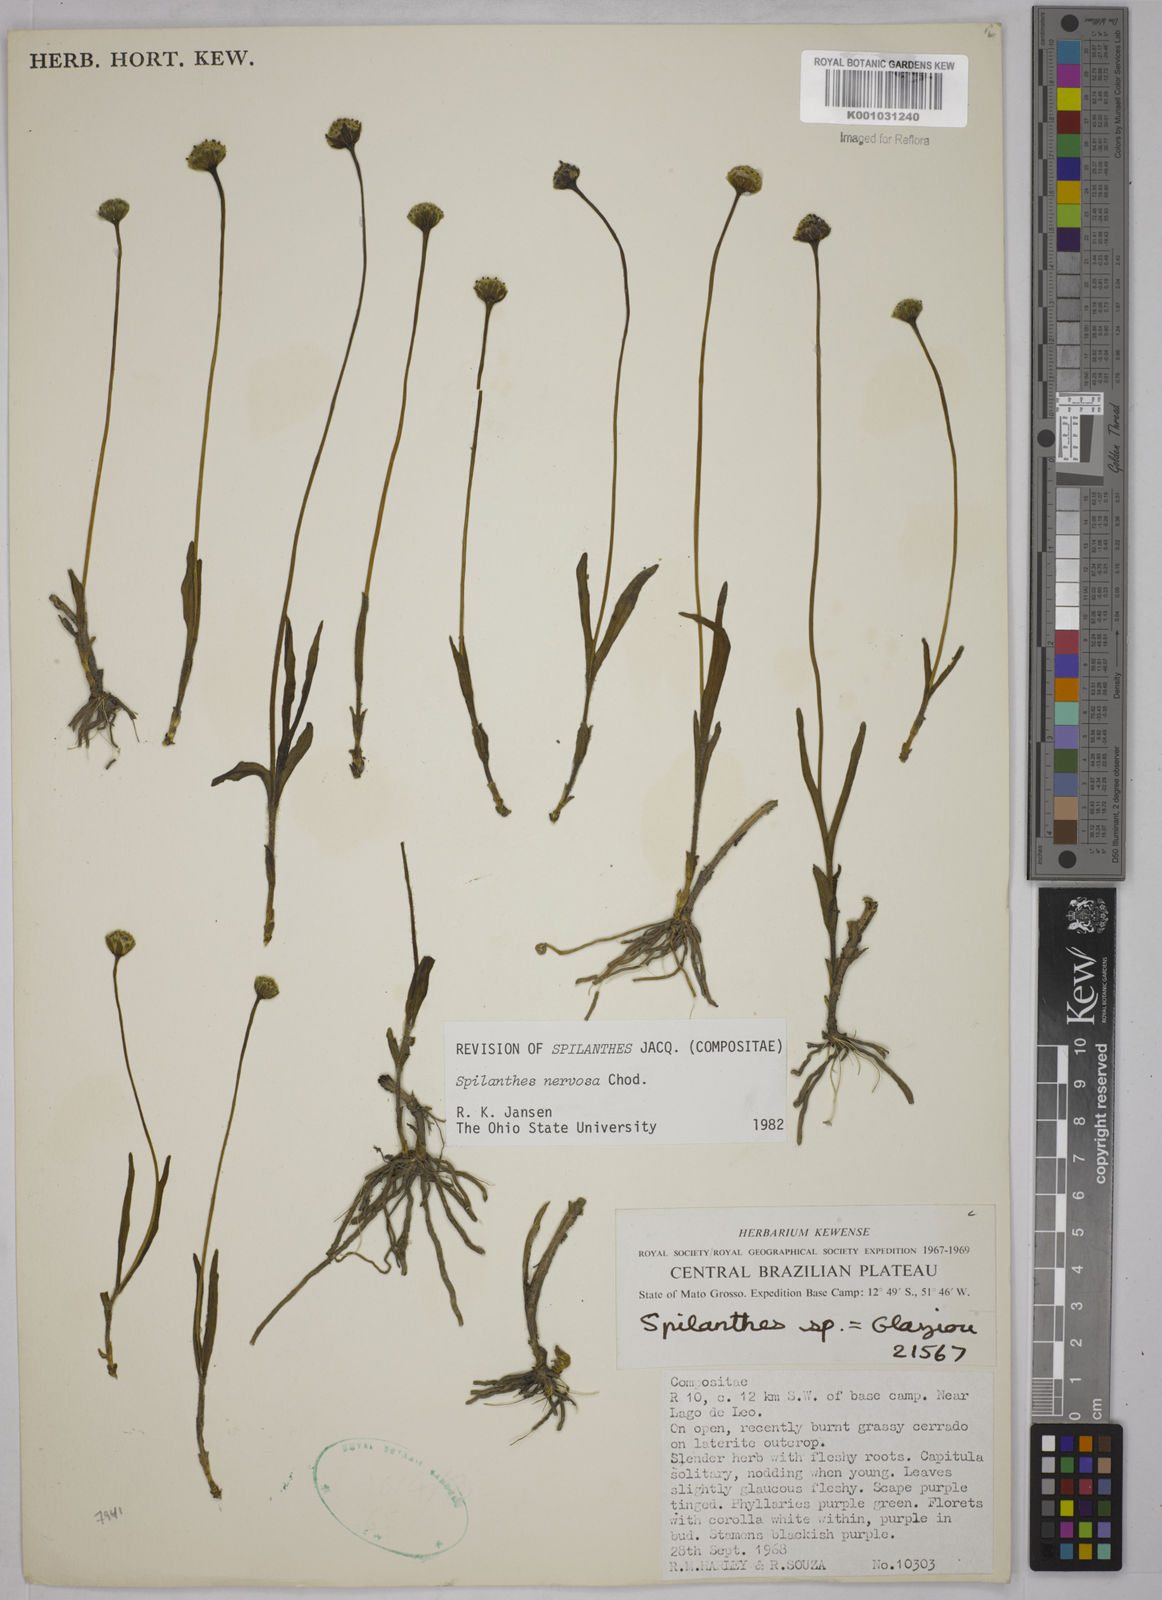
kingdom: Plantae
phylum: Tracheophyta
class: Magnoliopsida
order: Asterales
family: Asteraceae
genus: Spilanthes
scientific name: Spilanthes nervosa
